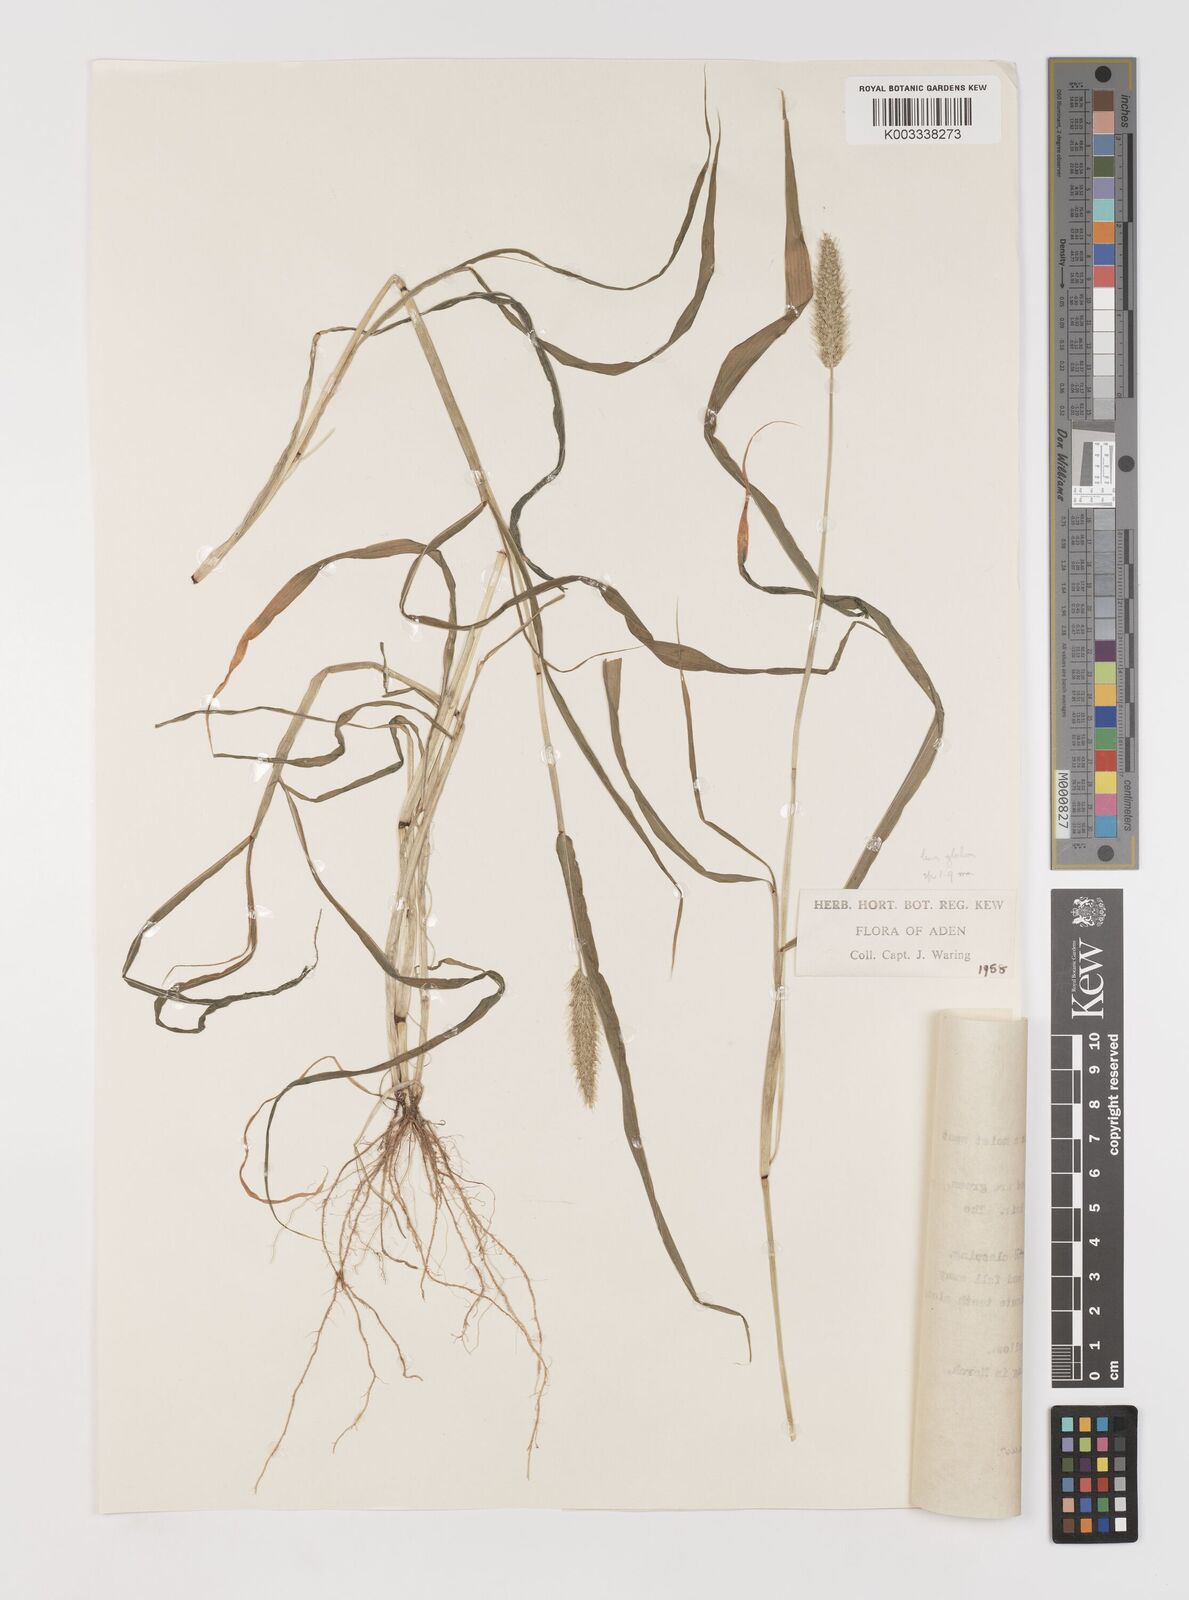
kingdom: Plantae
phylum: Tracheophyta
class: Liliopsida
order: Poales
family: Poaceae
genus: Setaria
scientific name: Setaria verticillata
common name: Hooked bristlegrass
